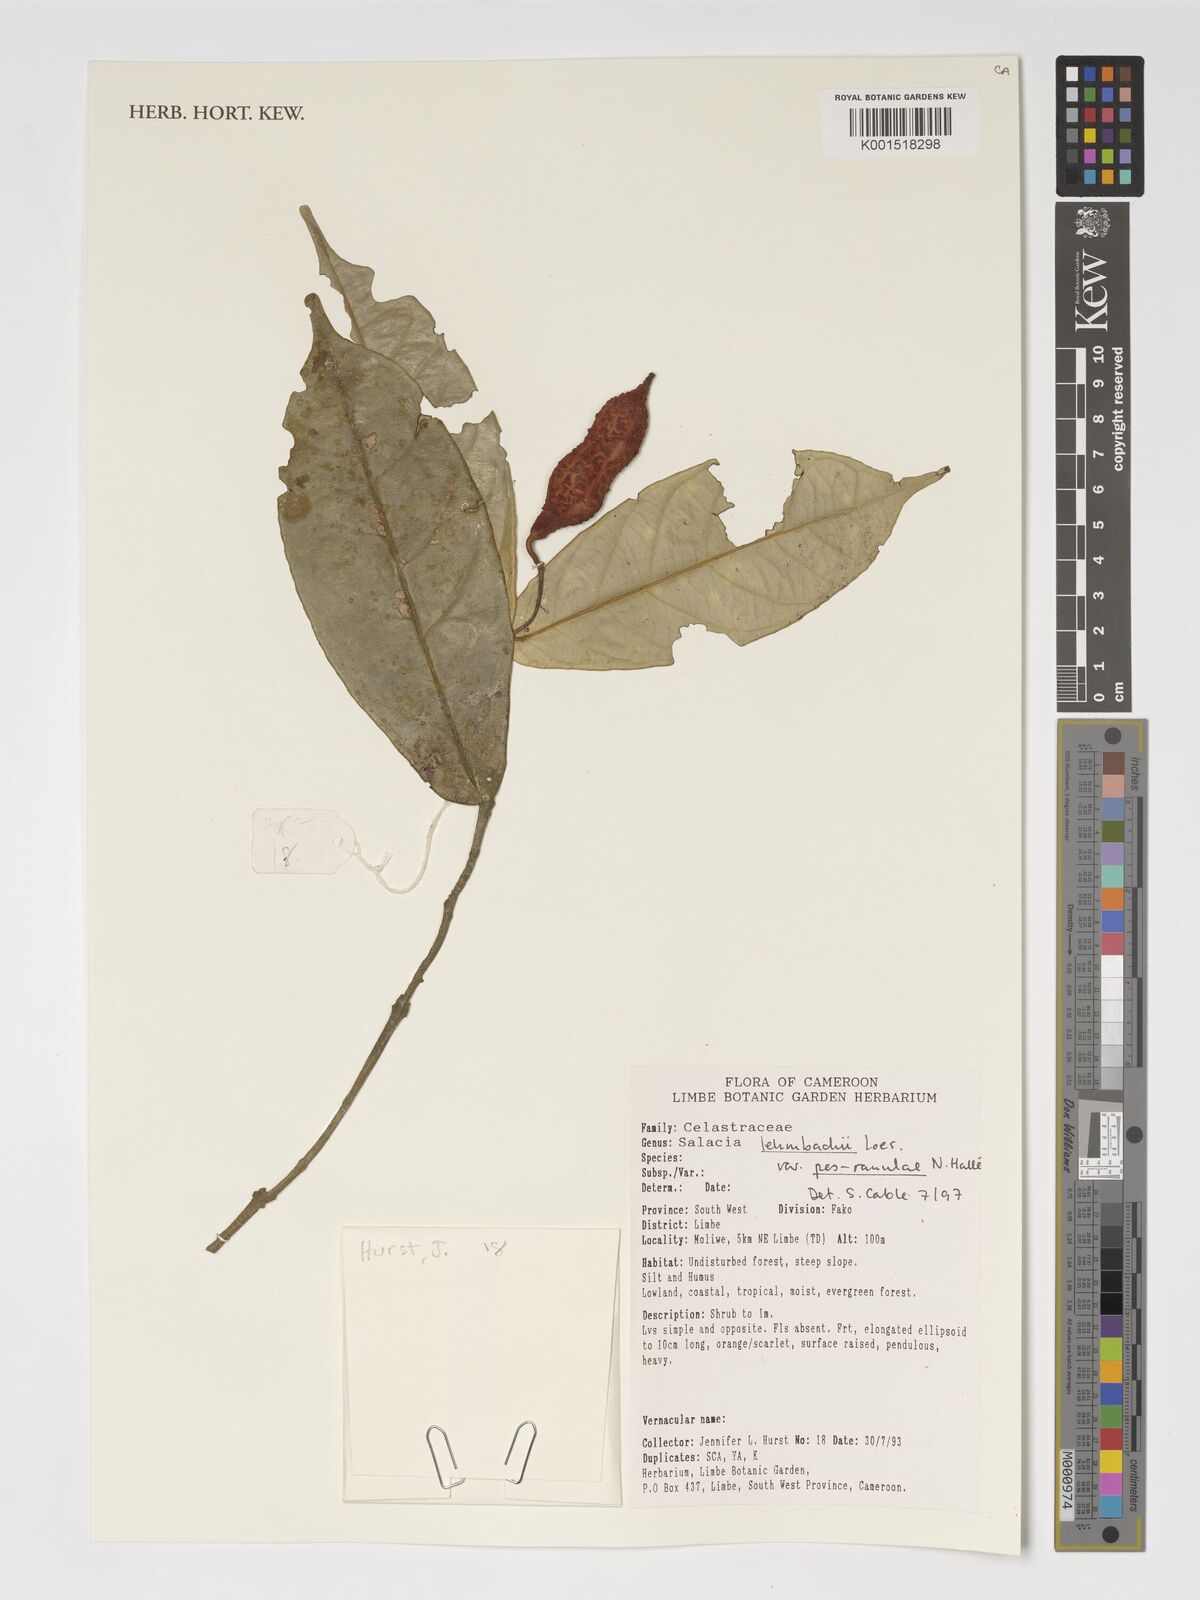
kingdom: Plantae
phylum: Tracheophyta
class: Magnoliopsida
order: Celastrales
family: Celastraceae
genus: Salacia
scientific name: Salacia lehmbachii
